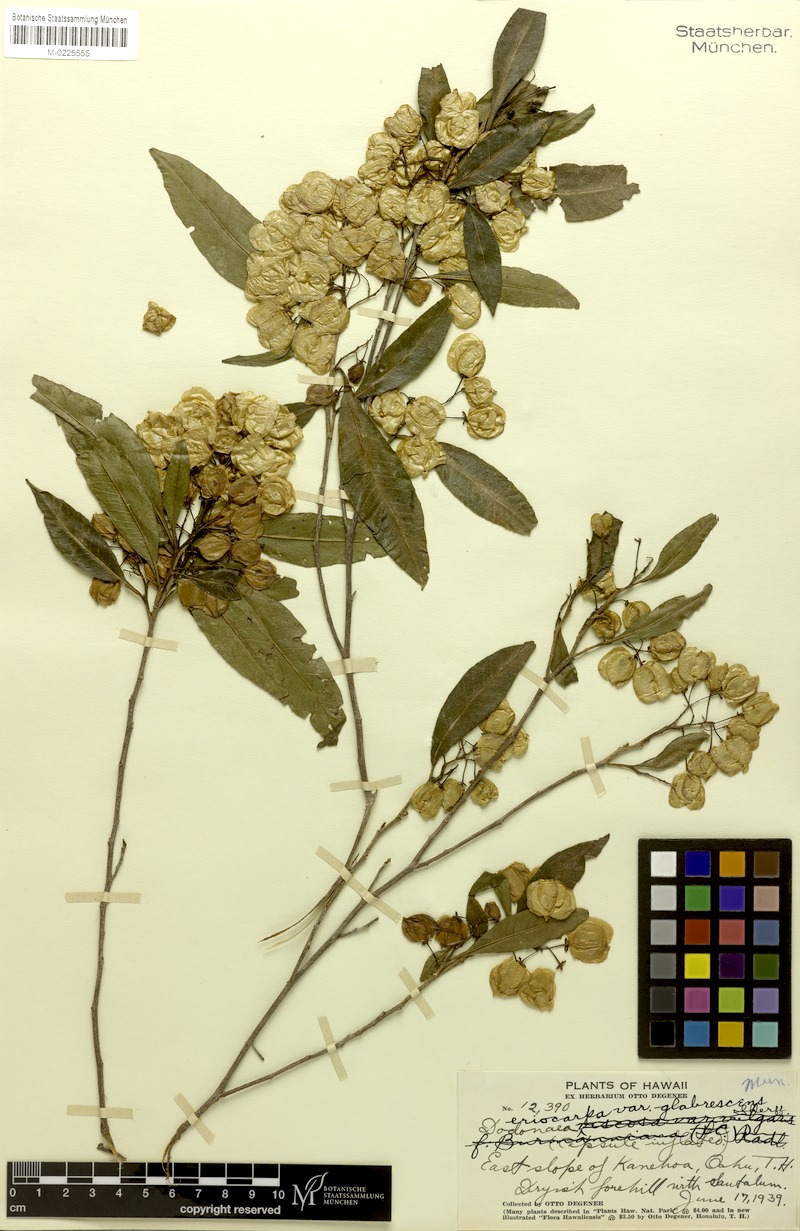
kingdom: Plantae
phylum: Tracheophyta
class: Magnoliopsida
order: Sapindales
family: Sapindaceae
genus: Dodonaea
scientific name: Dodonaea viscosa
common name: Hopbush
